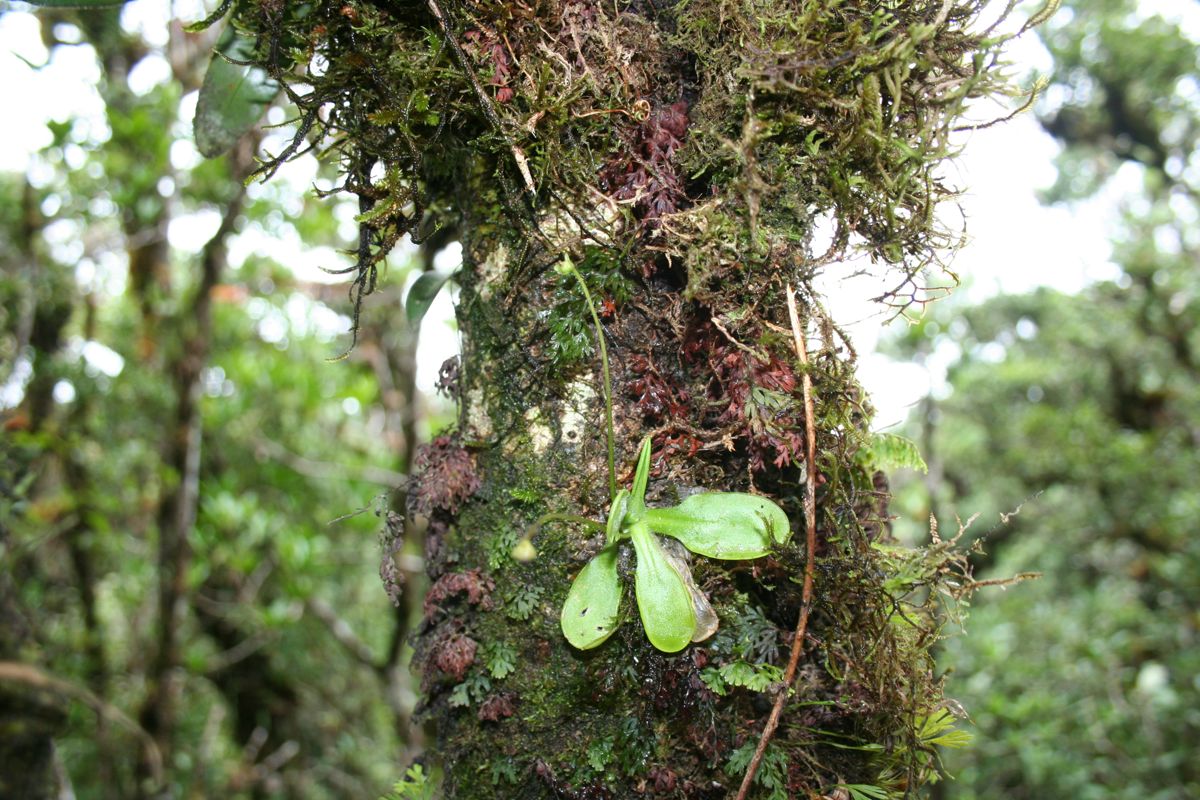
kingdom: Plantae
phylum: Tracheophyta
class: Magnoliopsida
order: Lamiales
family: Lentibulariaceae
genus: Pinguicula
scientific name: Pinguicula mesophytica
